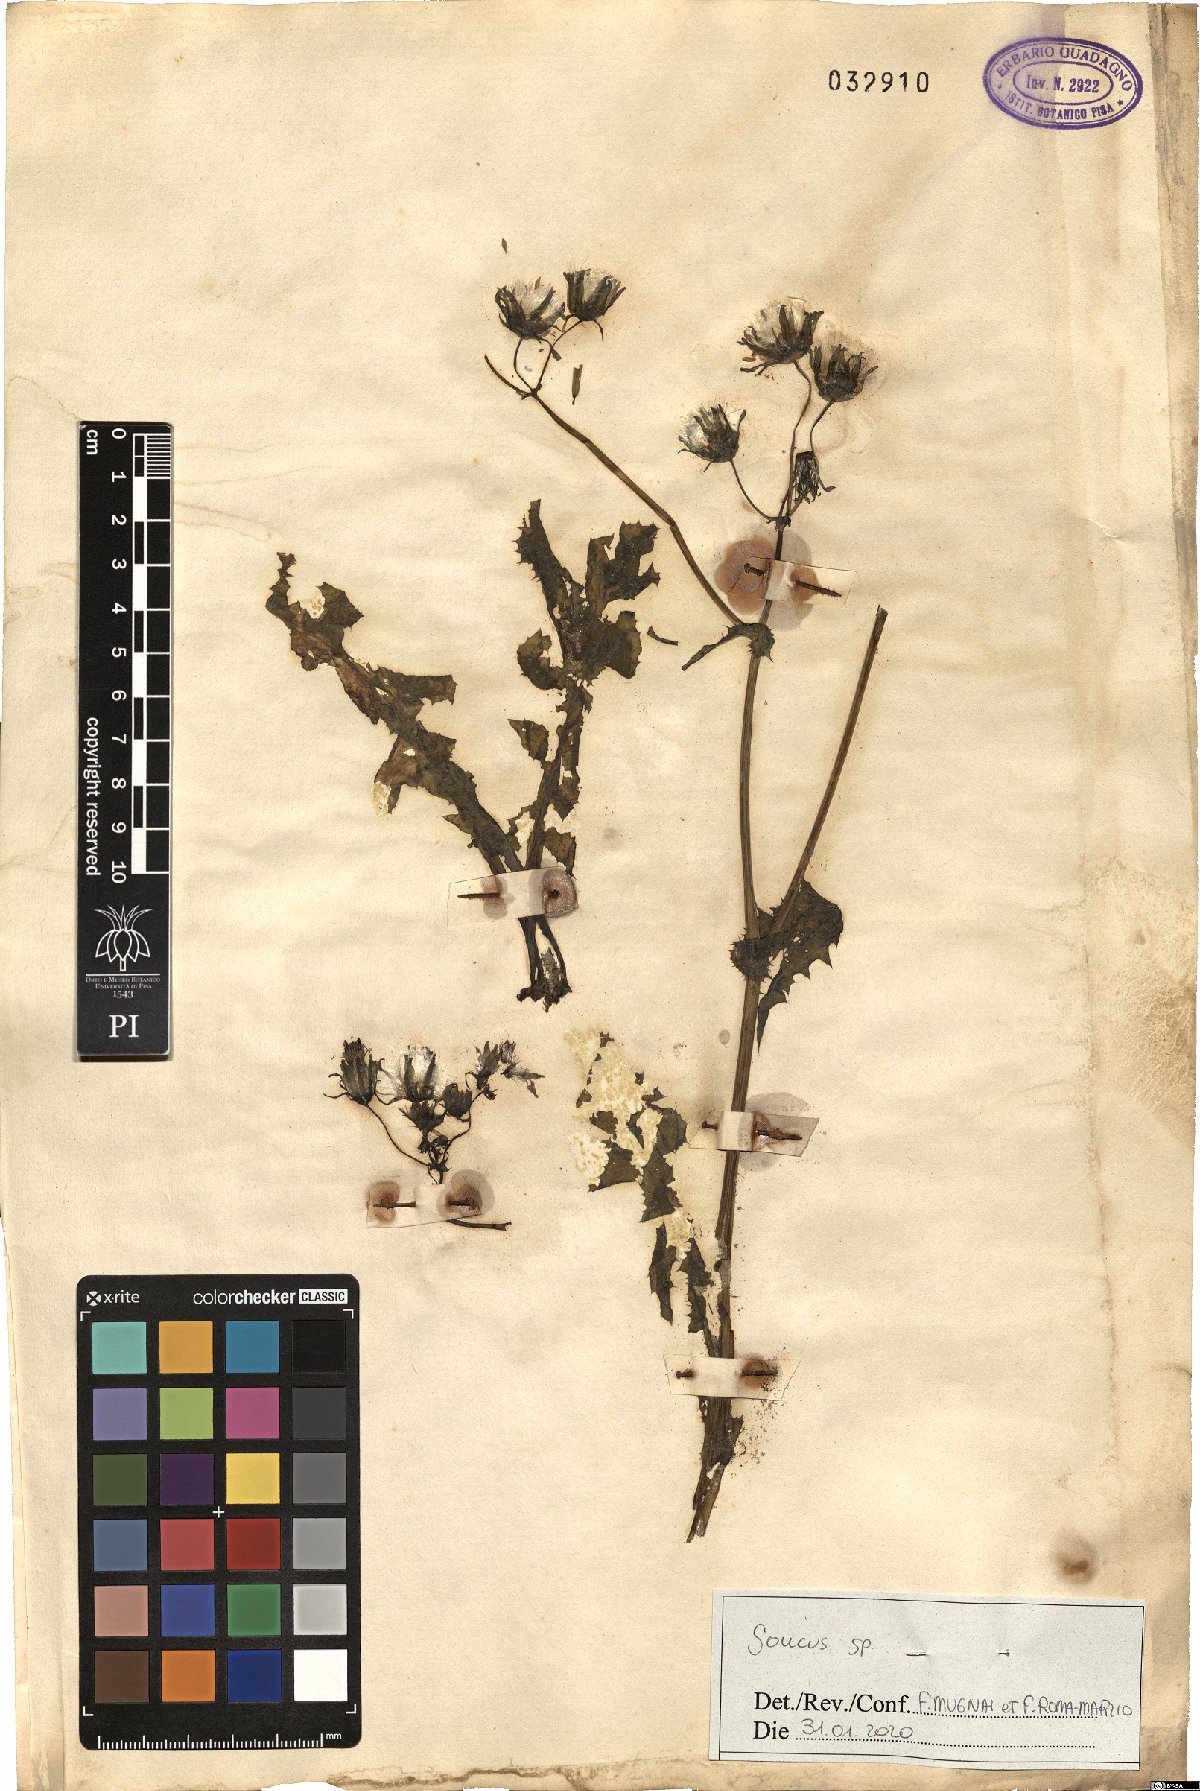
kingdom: Plantae
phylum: Tracheophyta
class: Magnoliopsida
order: Asterales
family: Asteraceae
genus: Sonchus
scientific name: Sonchus
